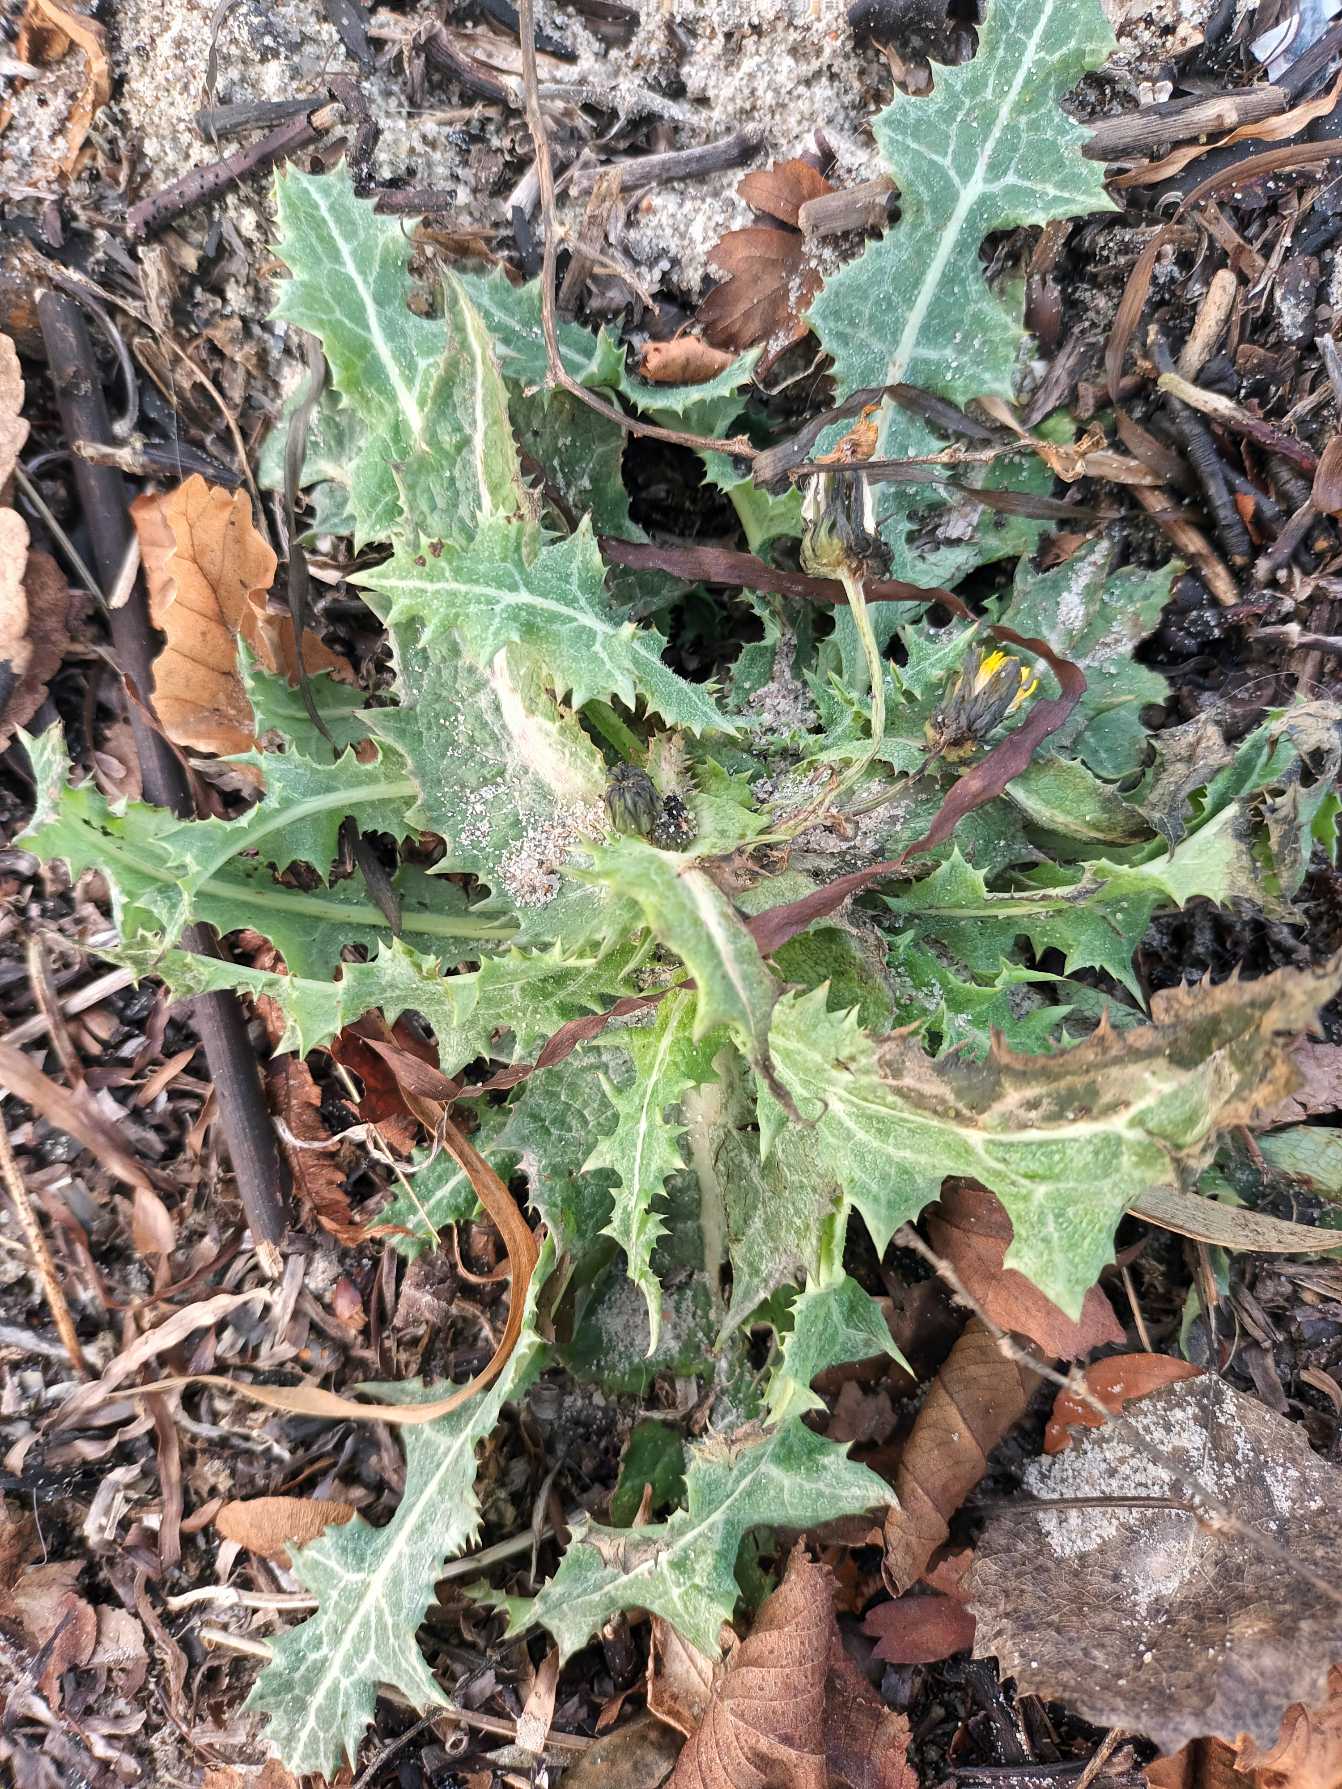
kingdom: Plantae
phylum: Tracheophyta
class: Magnoliopsida
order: Asterales
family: Asteraceae
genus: Sonchus
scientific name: Sonchus asper
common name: Ru svinemælk
